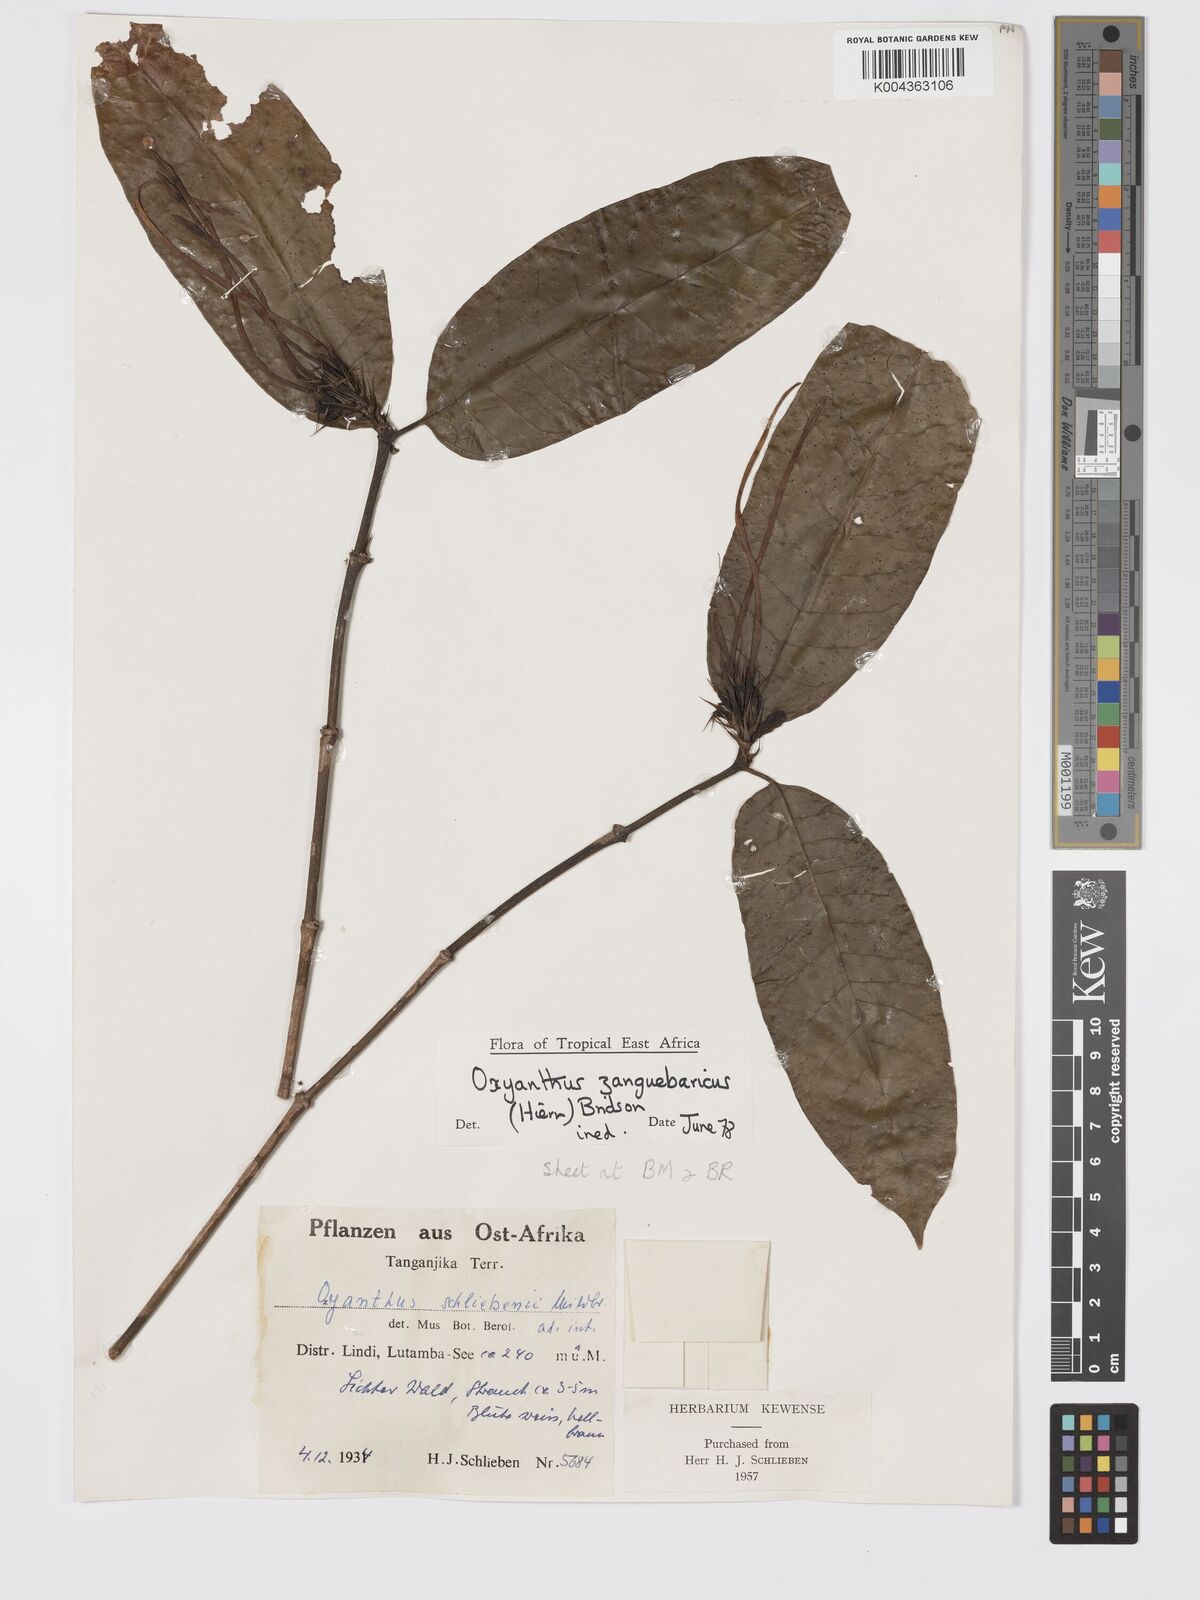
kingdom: Plantae
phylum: Tracheophyta
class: Magnoliopsida
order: Gentianales
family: Rubiaceae
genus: Oxyanthus
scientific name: Oxyanthus zanguebaricus
